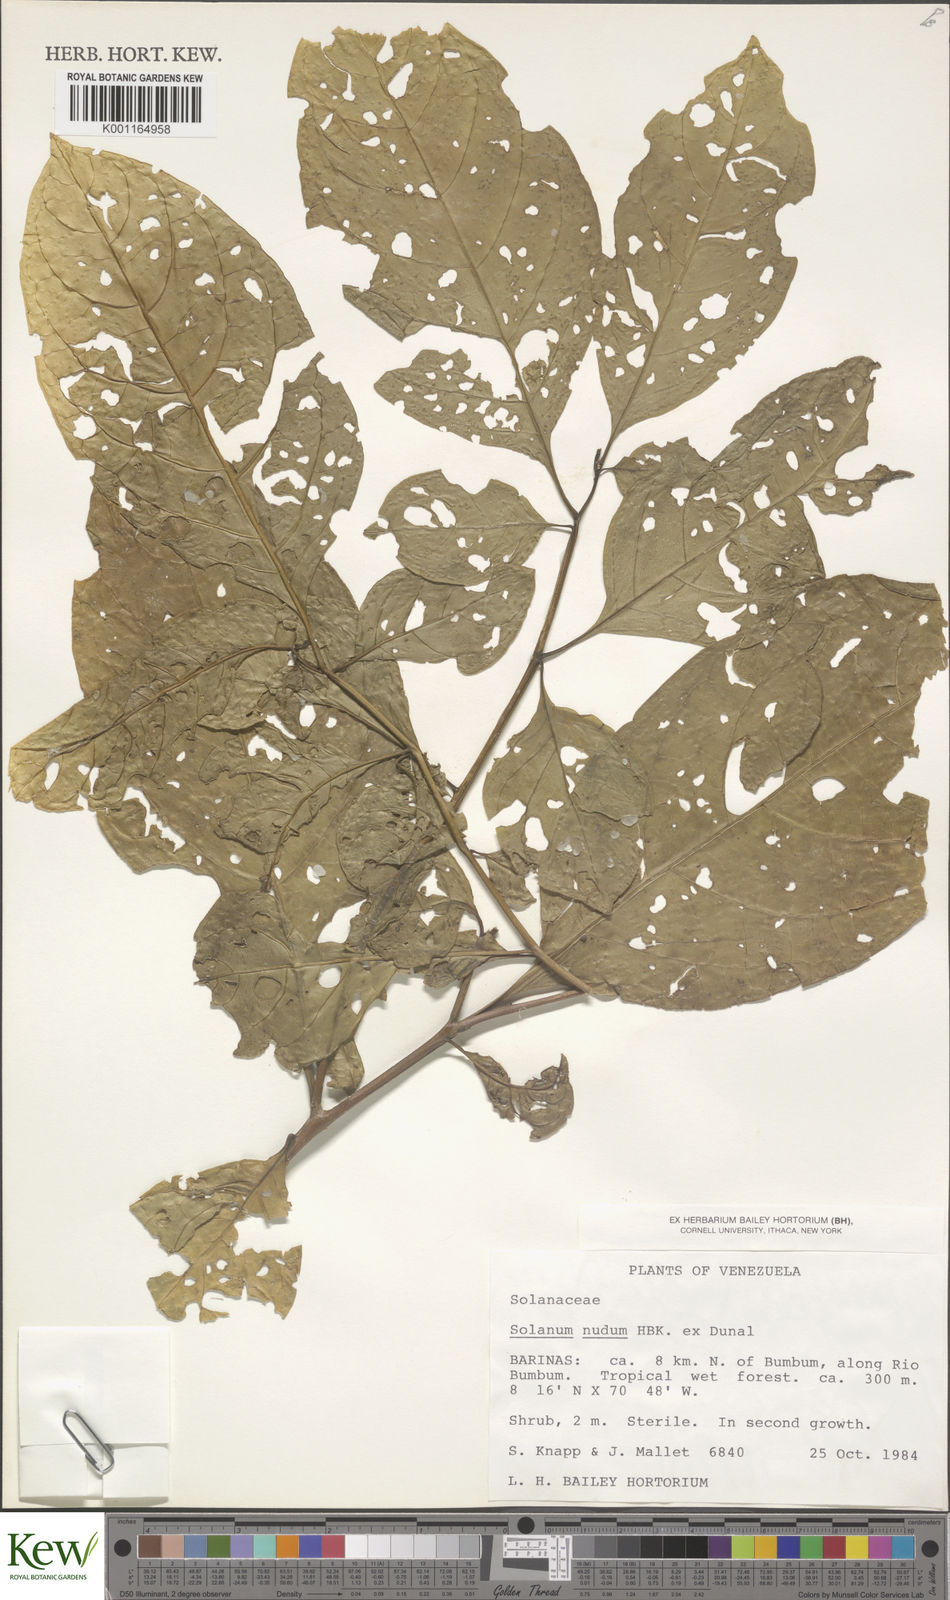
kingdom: Plantae
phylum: Tracheophyta
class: Magnoliopsida
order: Solanales
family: Solanaceae
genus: Solanum
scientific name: Solanum nudum
